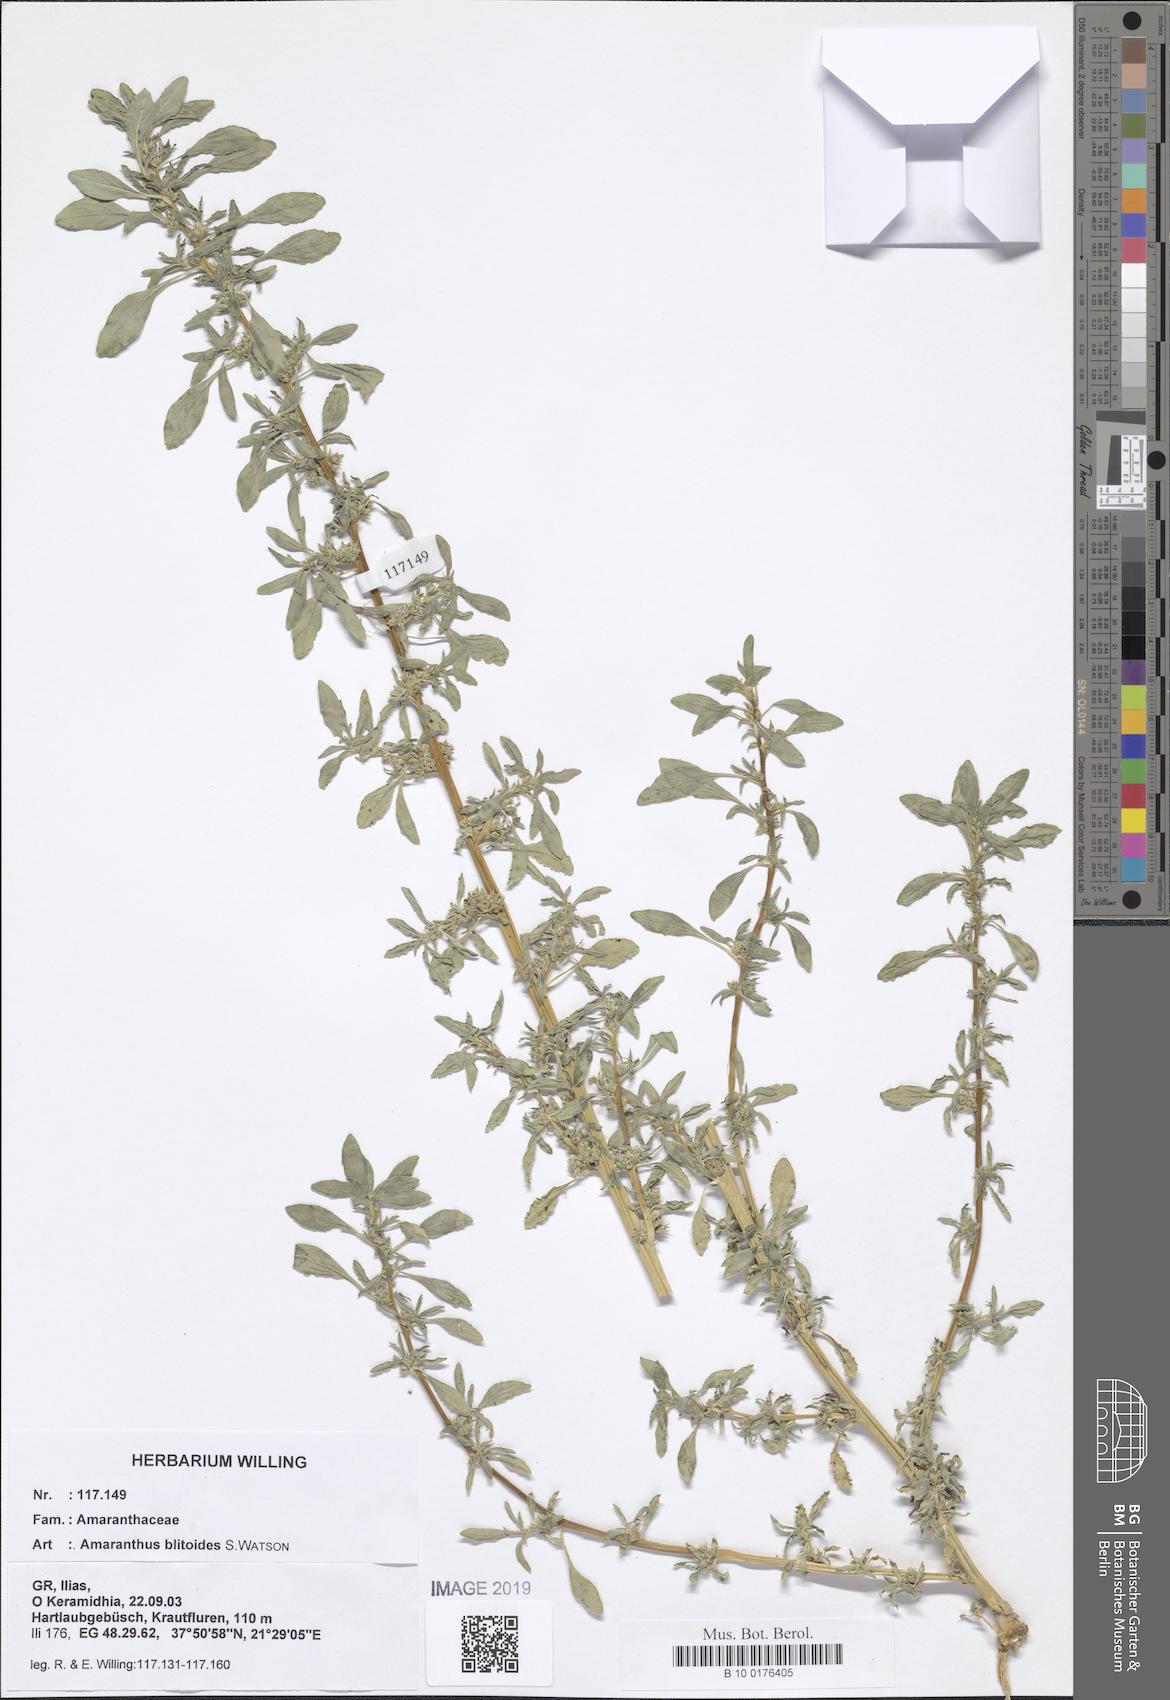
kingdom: Plantae
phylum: Tracheophyta
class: Magnoliopsida
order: Caryophyllales
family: Amaranthaceae
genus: Amaranthus
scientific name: Amaranthus blitoides
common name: Prostrate pigweed
